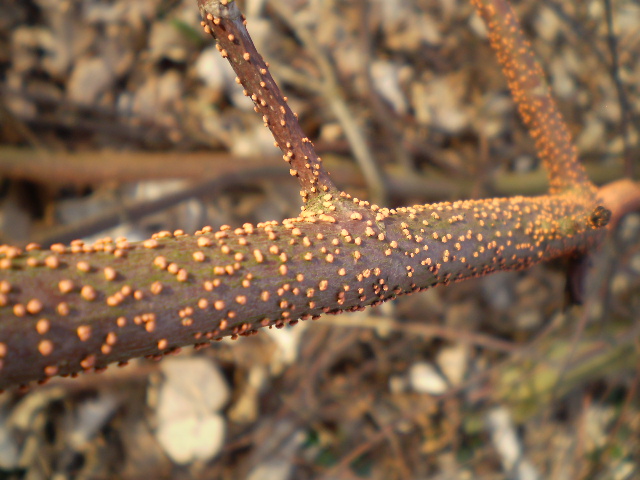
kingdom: Fungi
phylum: Ascomycota
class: Sordariomycetes
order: Hypocreales
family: Nectriaceae
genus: Nectria
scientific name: Nectria cinnabarina
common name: almindelig cinnobersvamp
